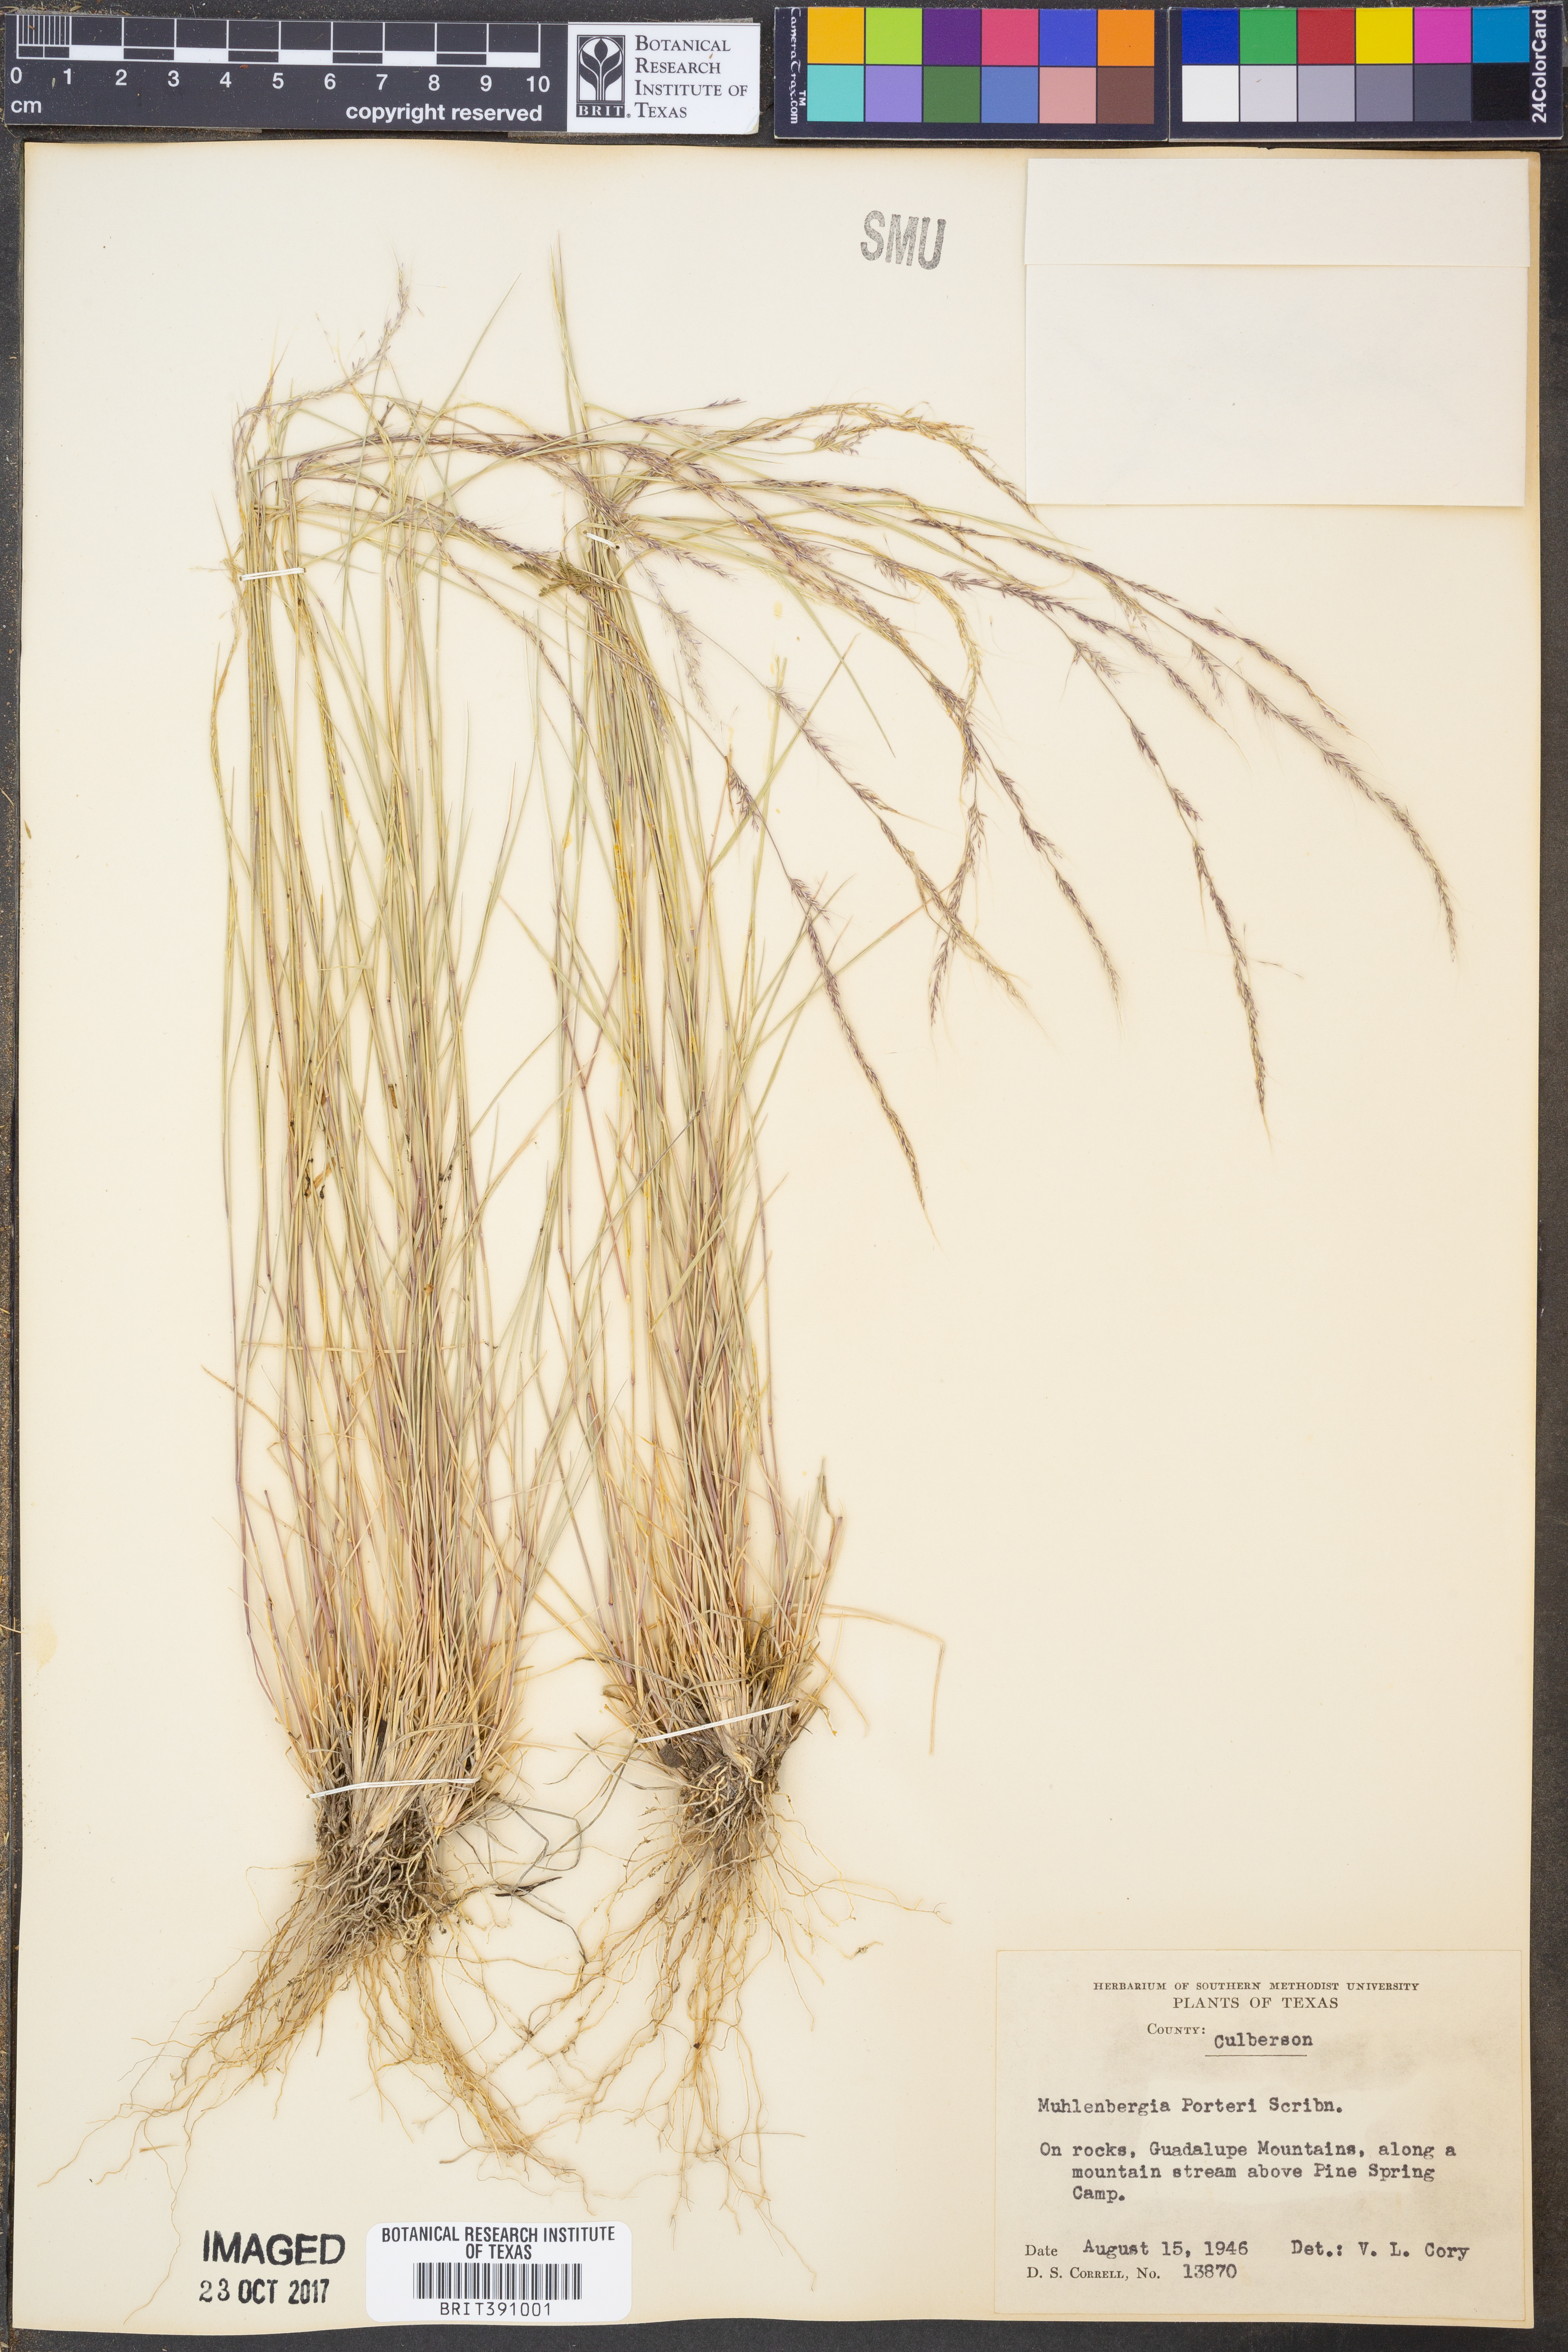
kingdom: Plantae
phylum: Tracheophyta
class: Liliopsida
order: Poales
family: Poaceae
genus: Muhlenbergia
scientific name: Muhlenbergia porteri
